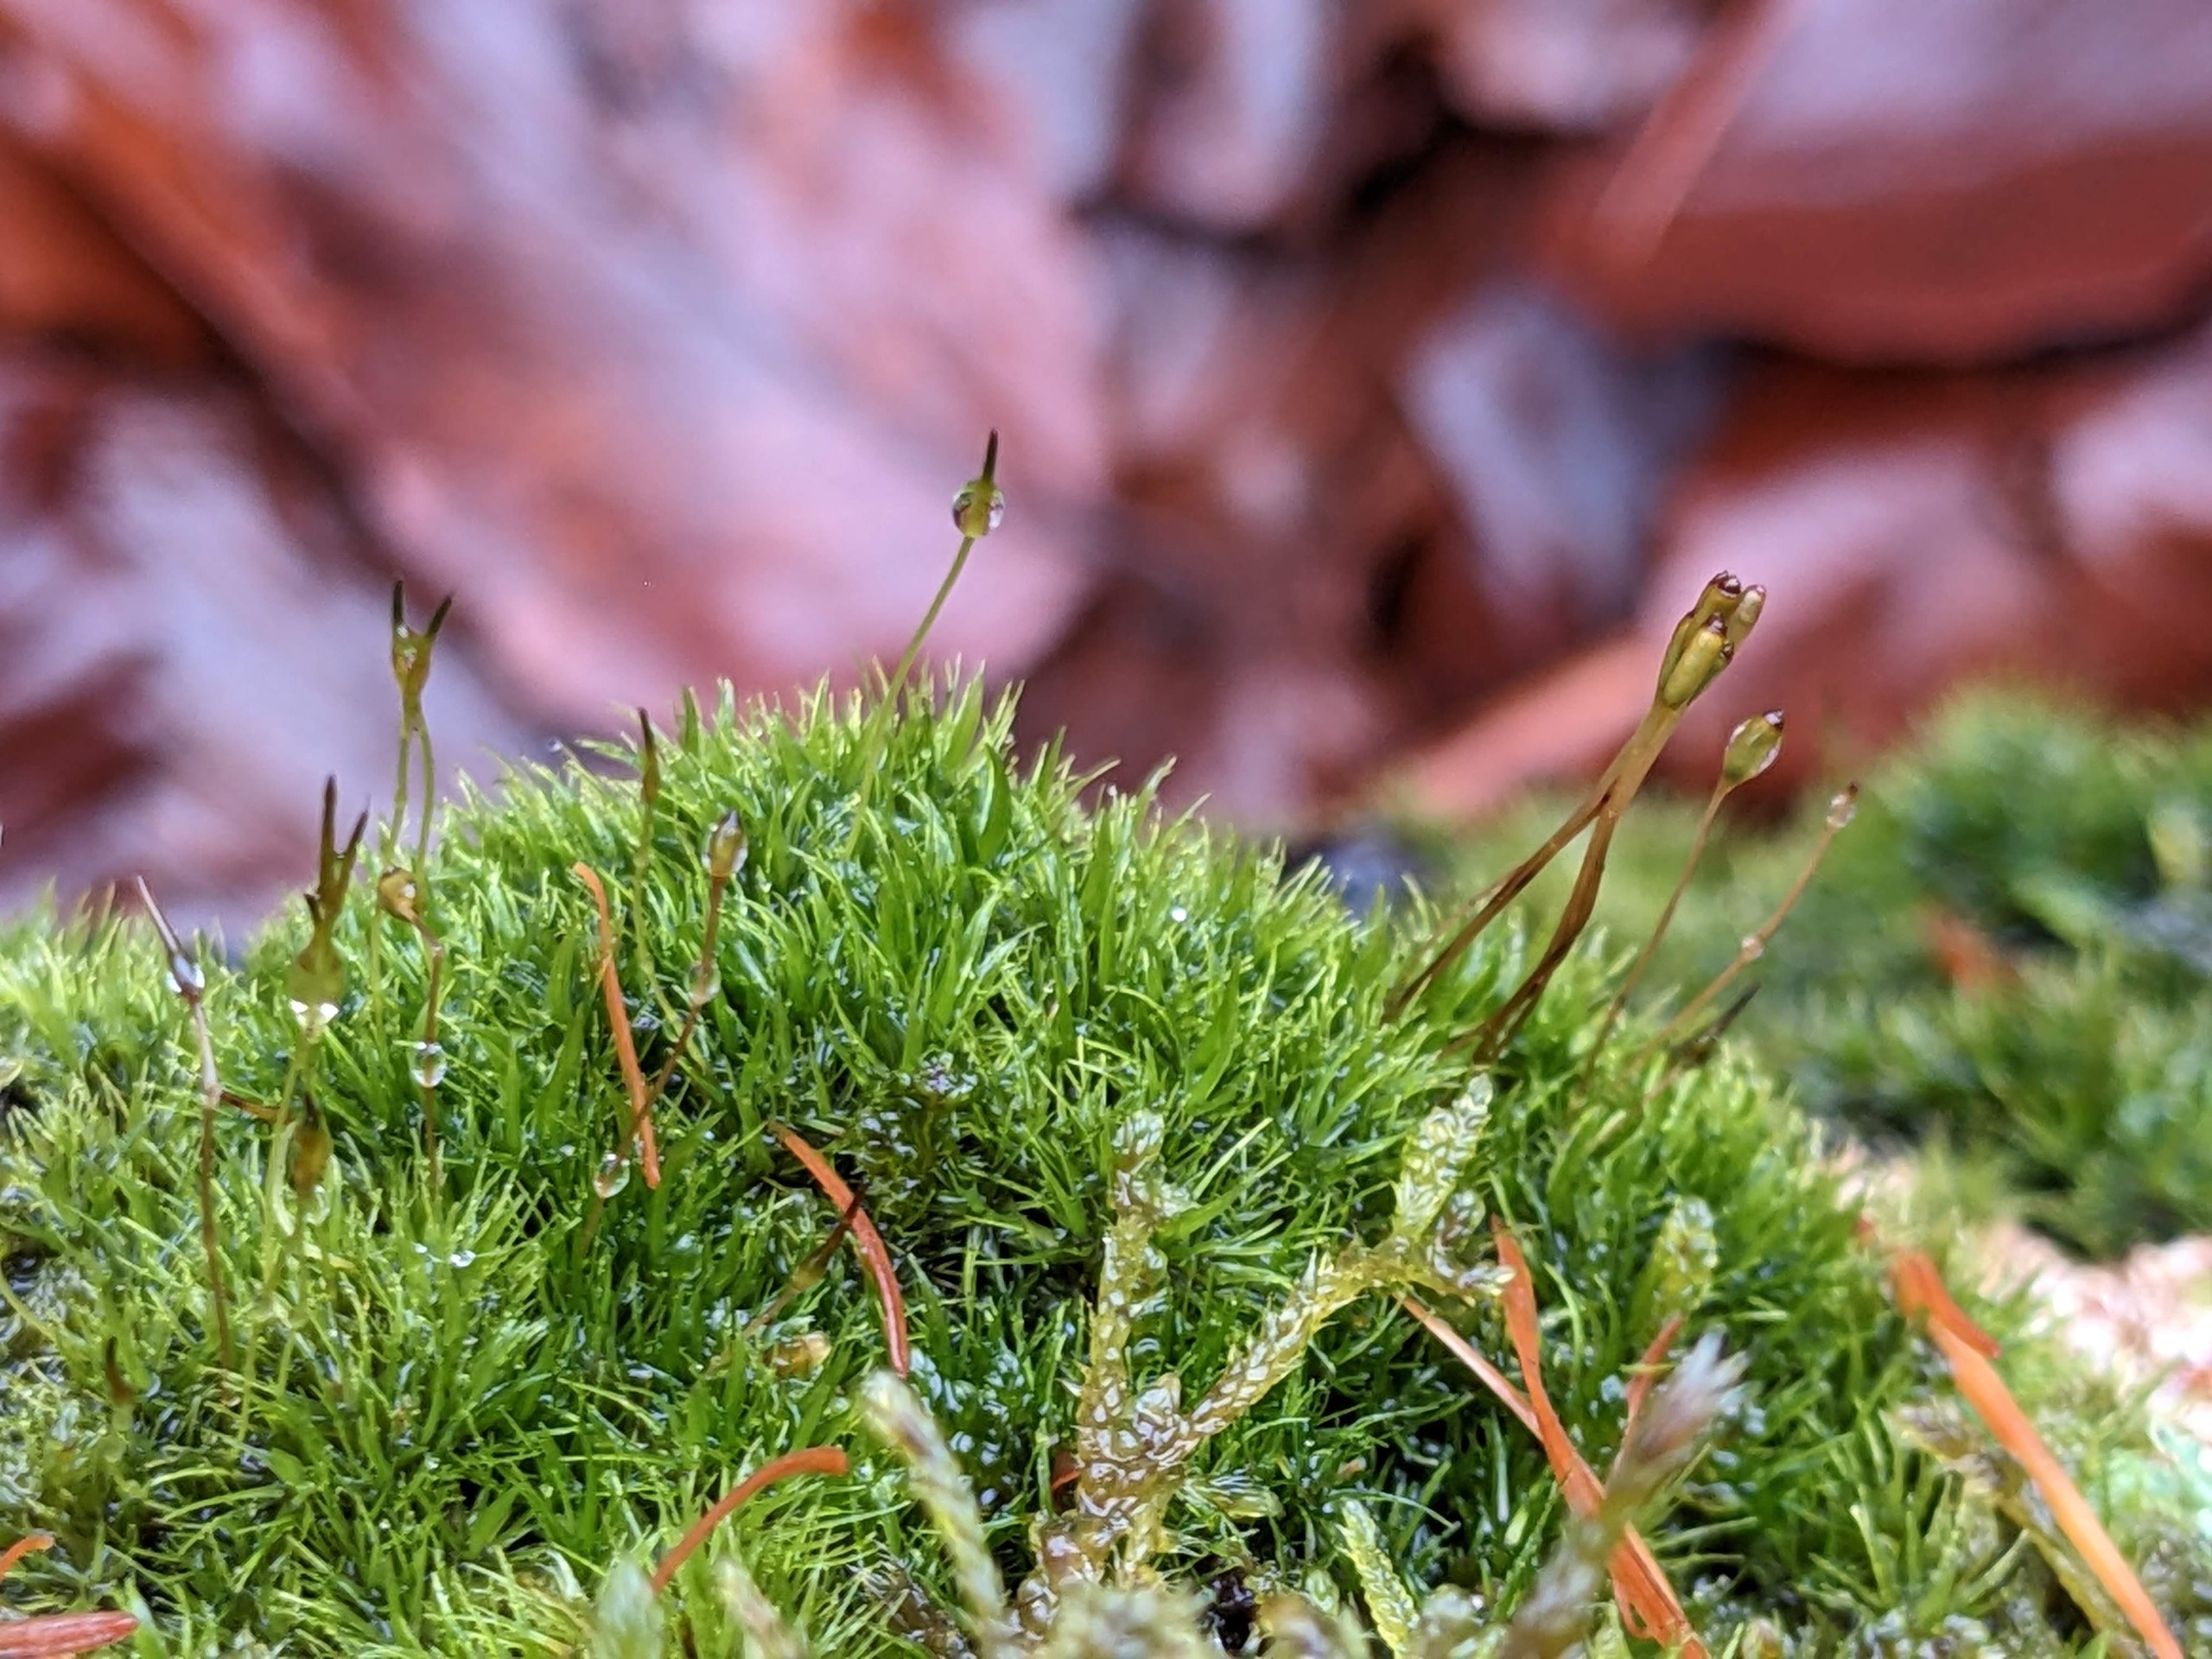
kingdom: Plantae
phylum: Bryophyta
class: Bryopsida
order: Dicranales
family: Dicranaceae
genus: Orthodicranum
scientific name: Orthodicranum montanum
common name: Tæt tyndvinge
